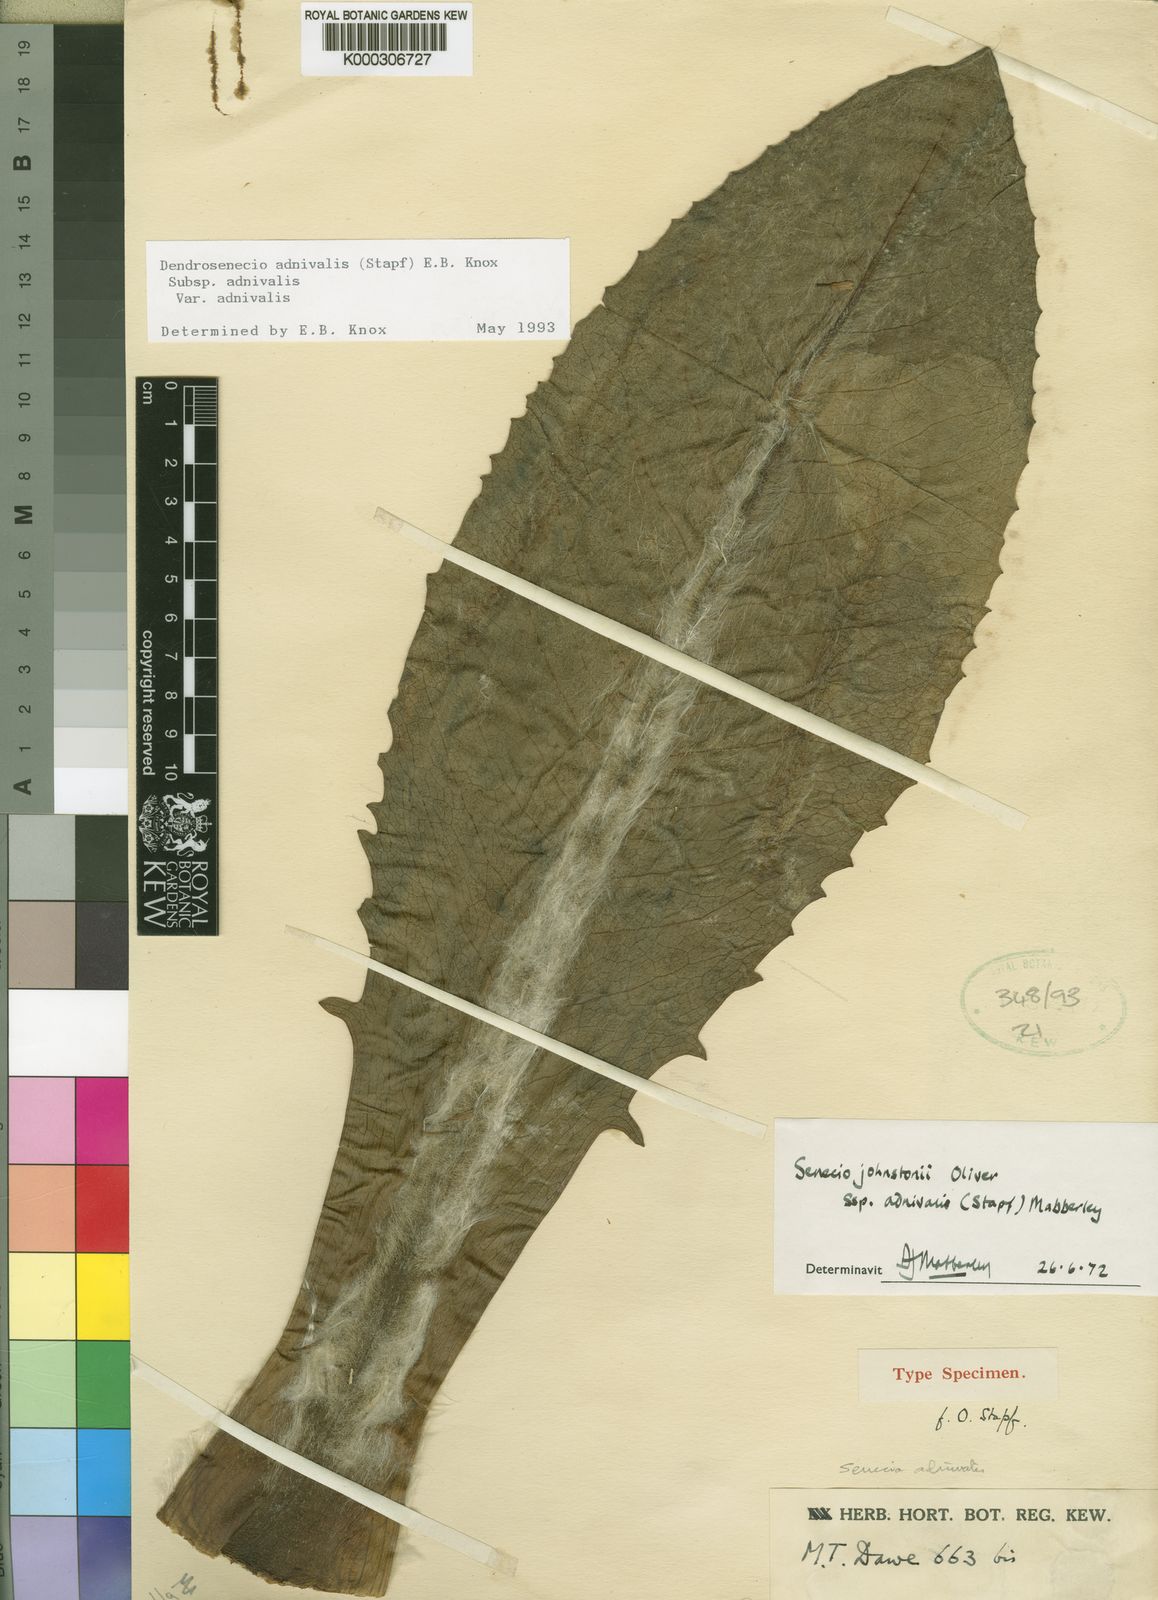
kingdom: Plantae
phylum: Tracheophyta
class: Magnoliopsida
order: Asterales
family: Asteraceae
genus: Dendrosenecio
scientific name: Dendrosenecio adnivalis
